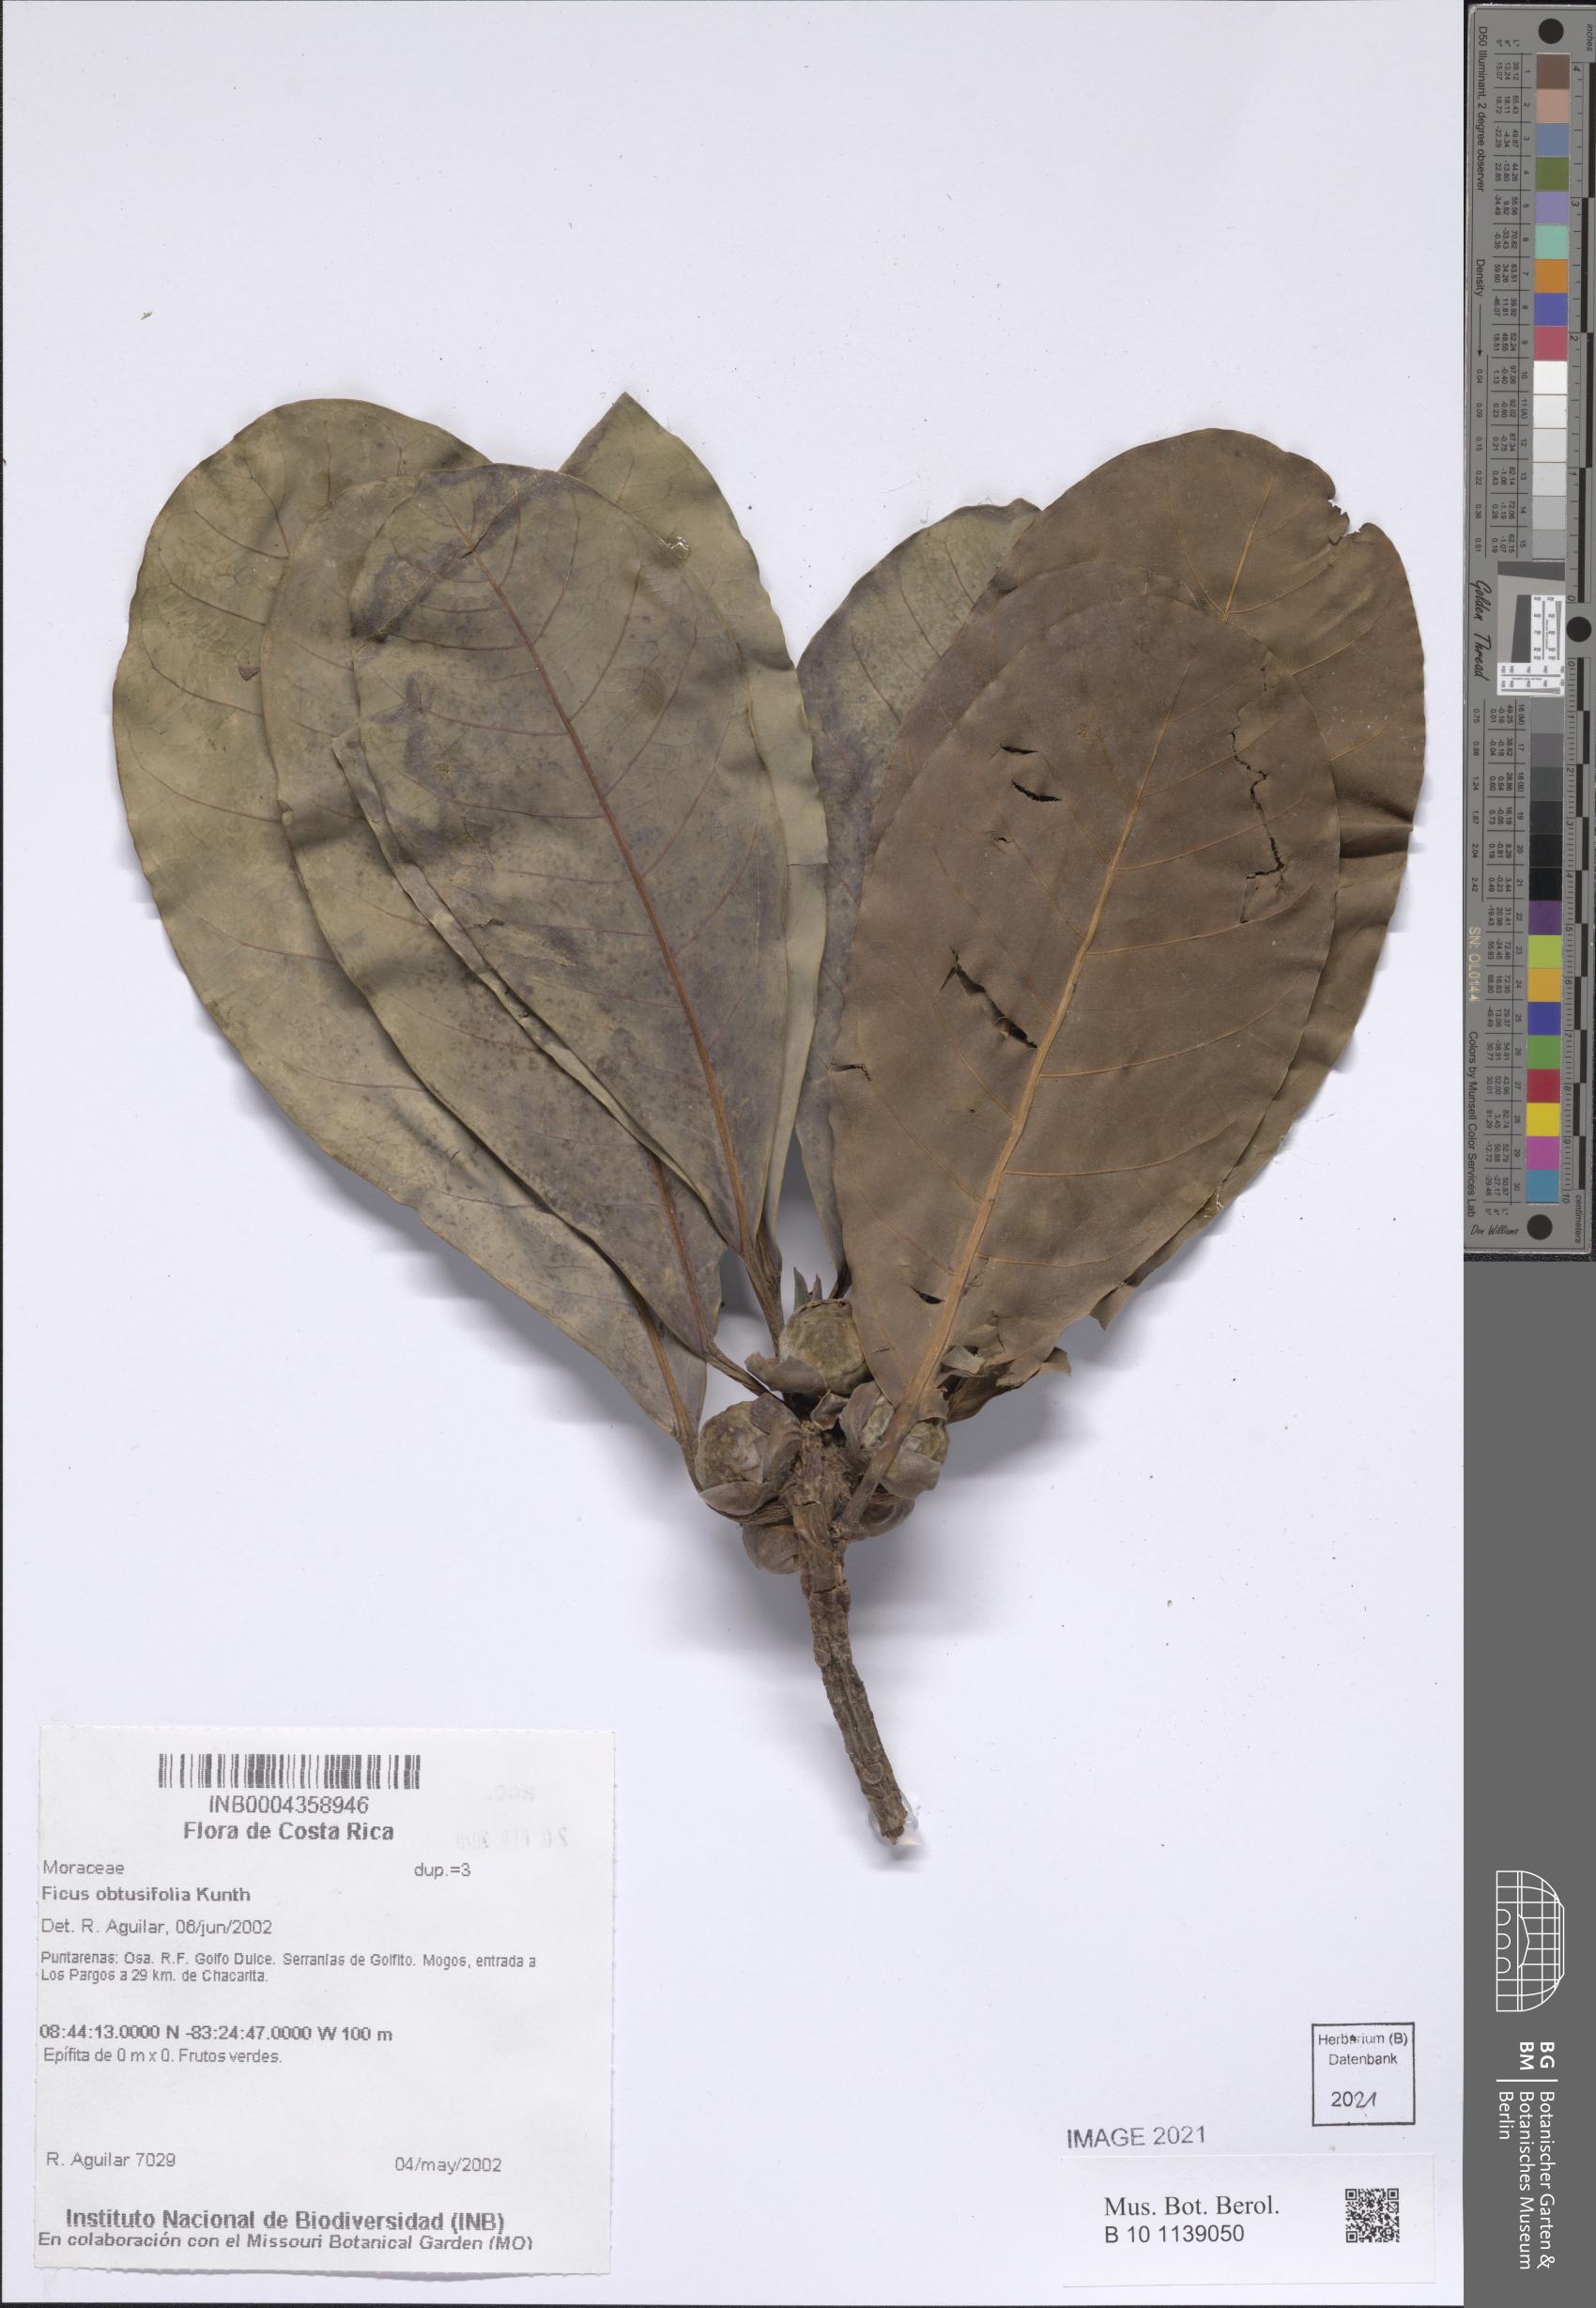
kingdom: Plantae
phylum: Tracheophyta
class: Magnoliopsida
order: Rosales
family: Moraceae
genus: Ficus
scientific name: Ficus obtusifolia
